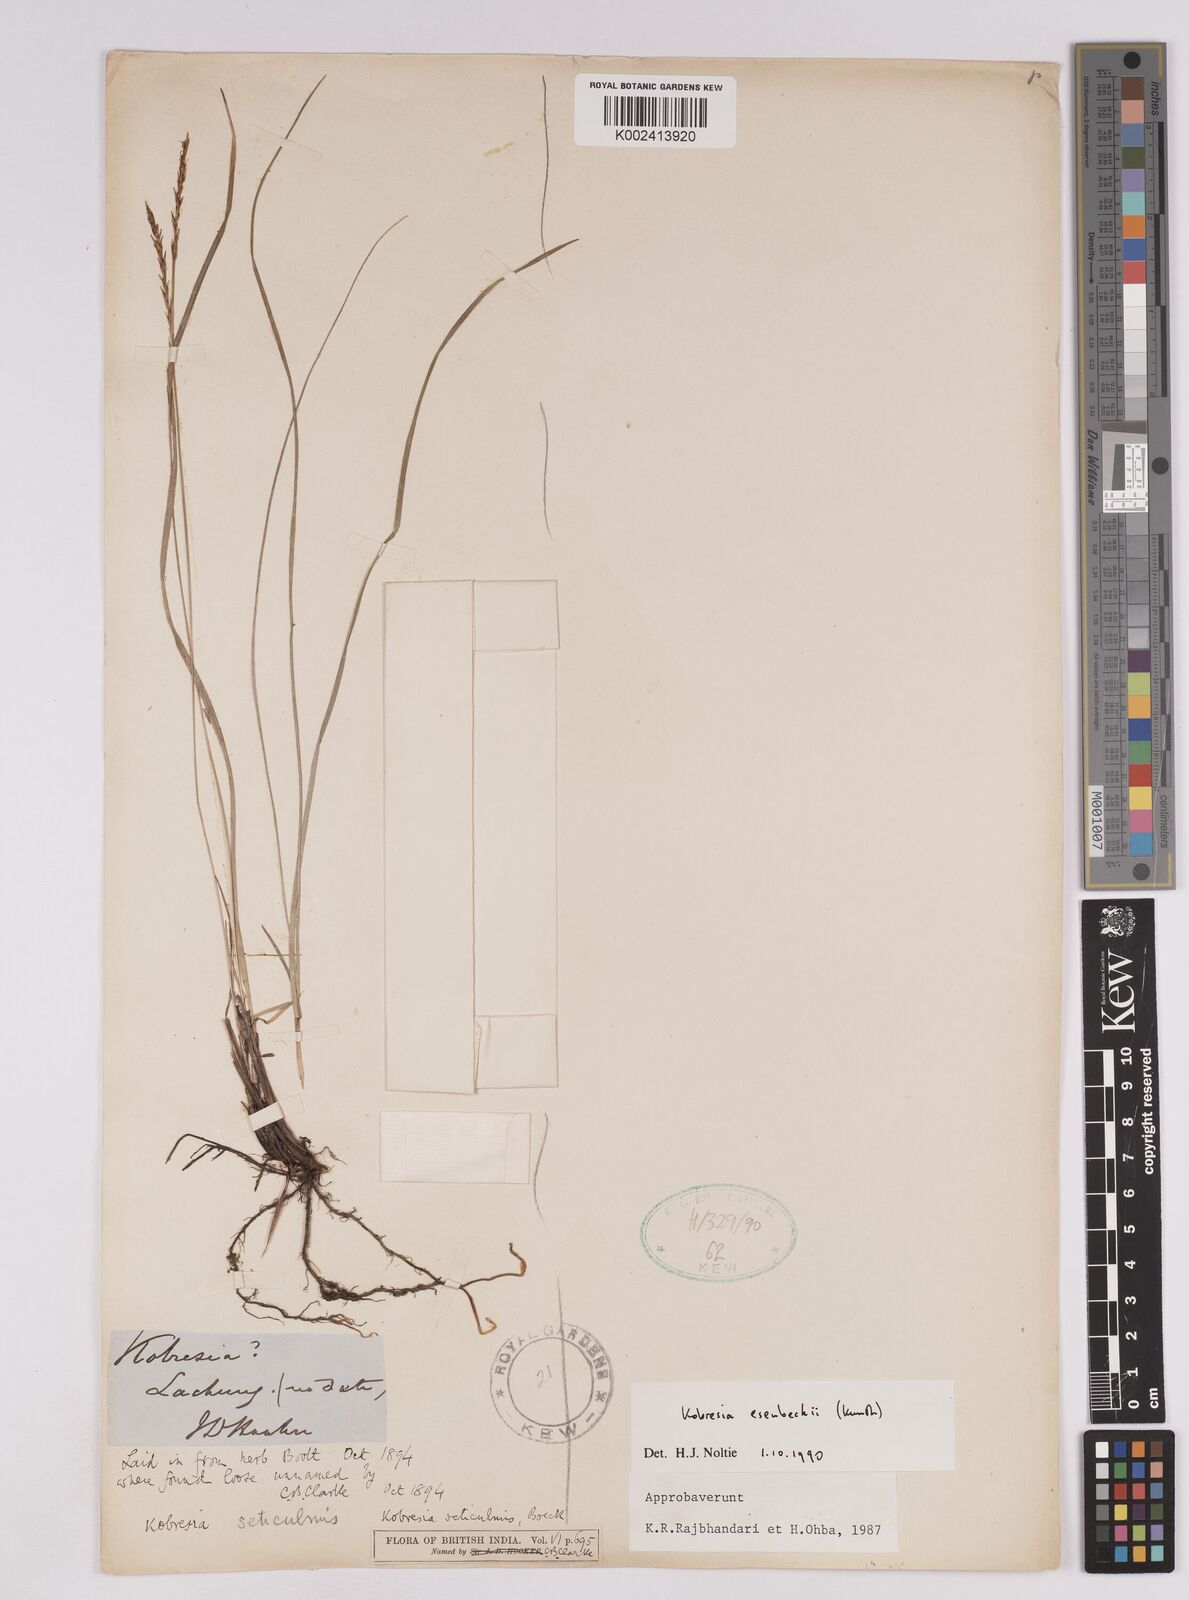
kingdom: Plantae
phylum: Tracheophyta
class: Liliopsida
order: Poales
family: Cyperaceae
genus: Carex
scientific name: Carex esenbeckii
